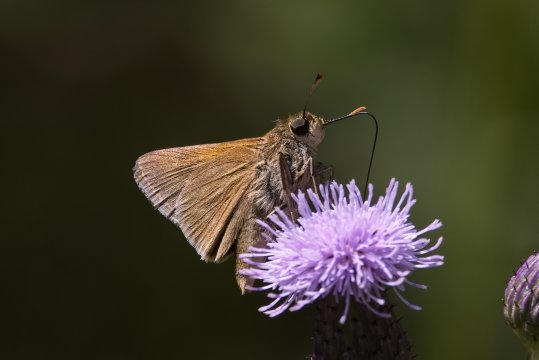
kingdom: Animalia
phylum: Arthropoda
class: Insecta
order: Lepidoptera
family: Hesperiidae
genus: Polites
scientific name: Polites
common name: Crossline Skipper
